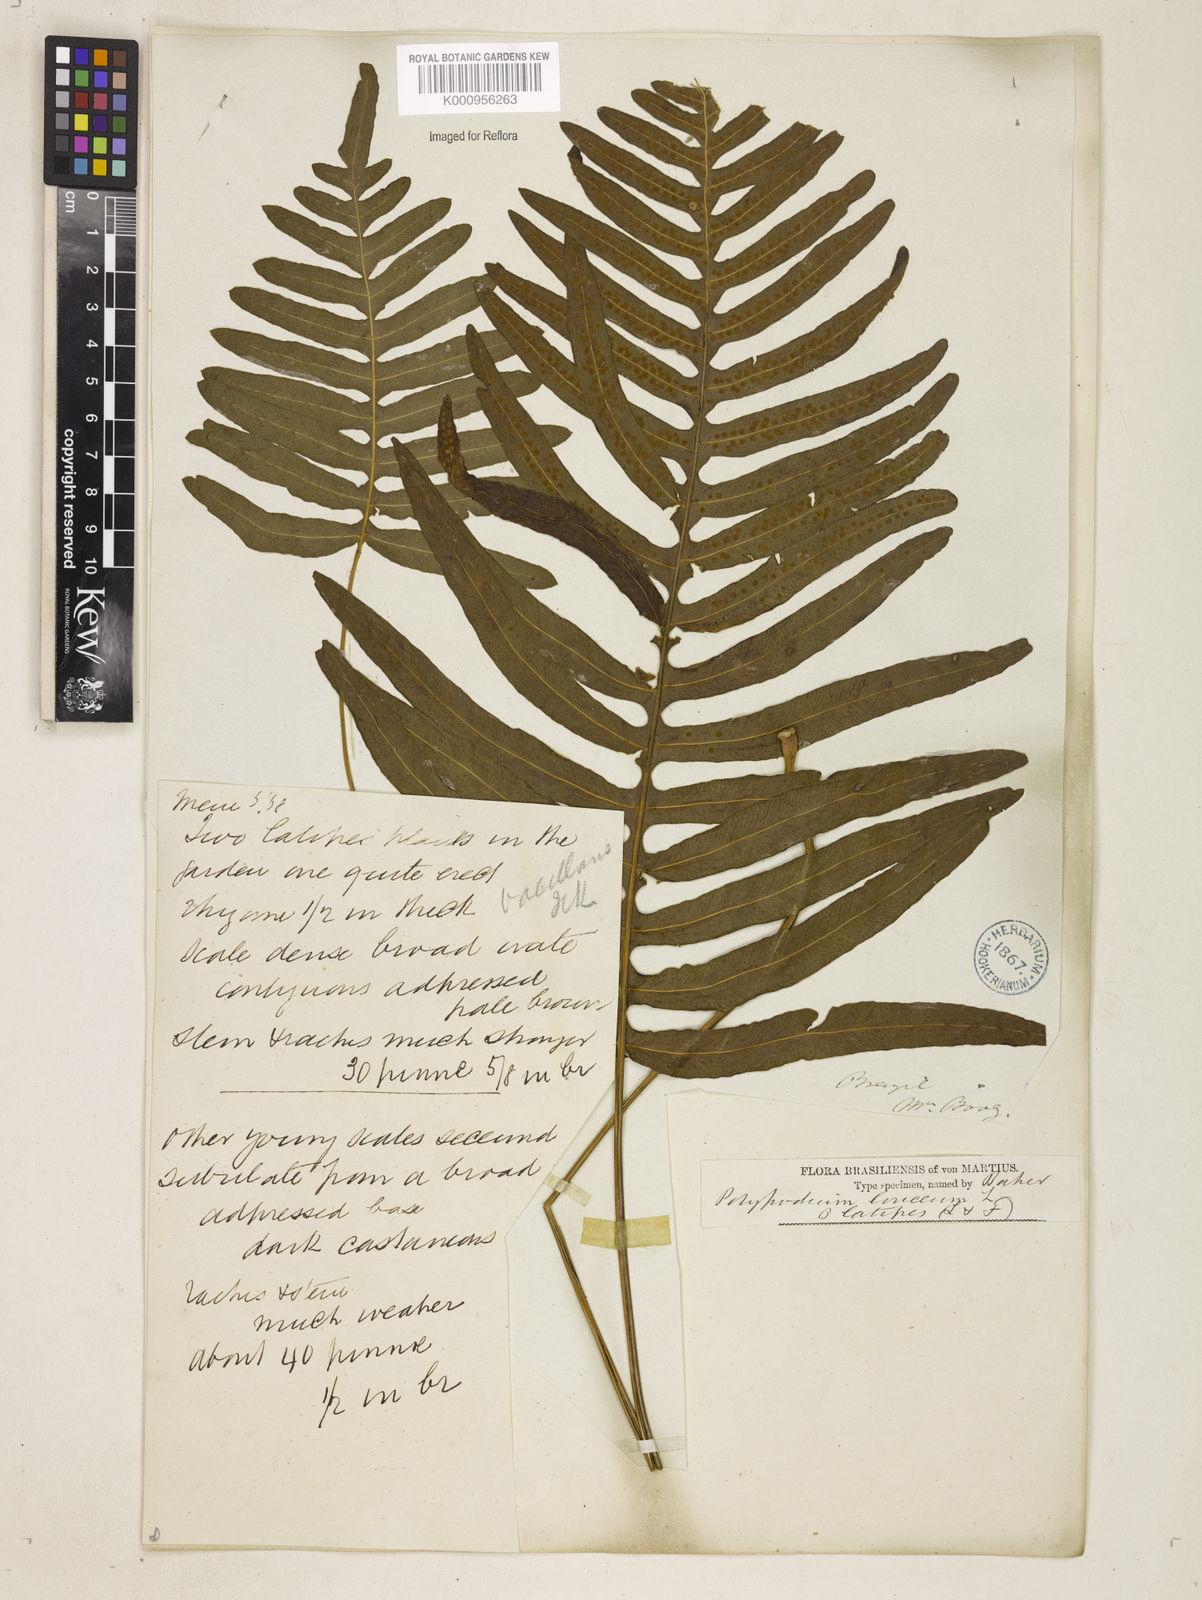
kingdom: Plantae
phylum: Tracheophyta
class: Polypodiopsida
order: Polypodiales
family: Polypodiaceae
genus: Serpocaulon
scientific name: Serpocaulon loriceum
